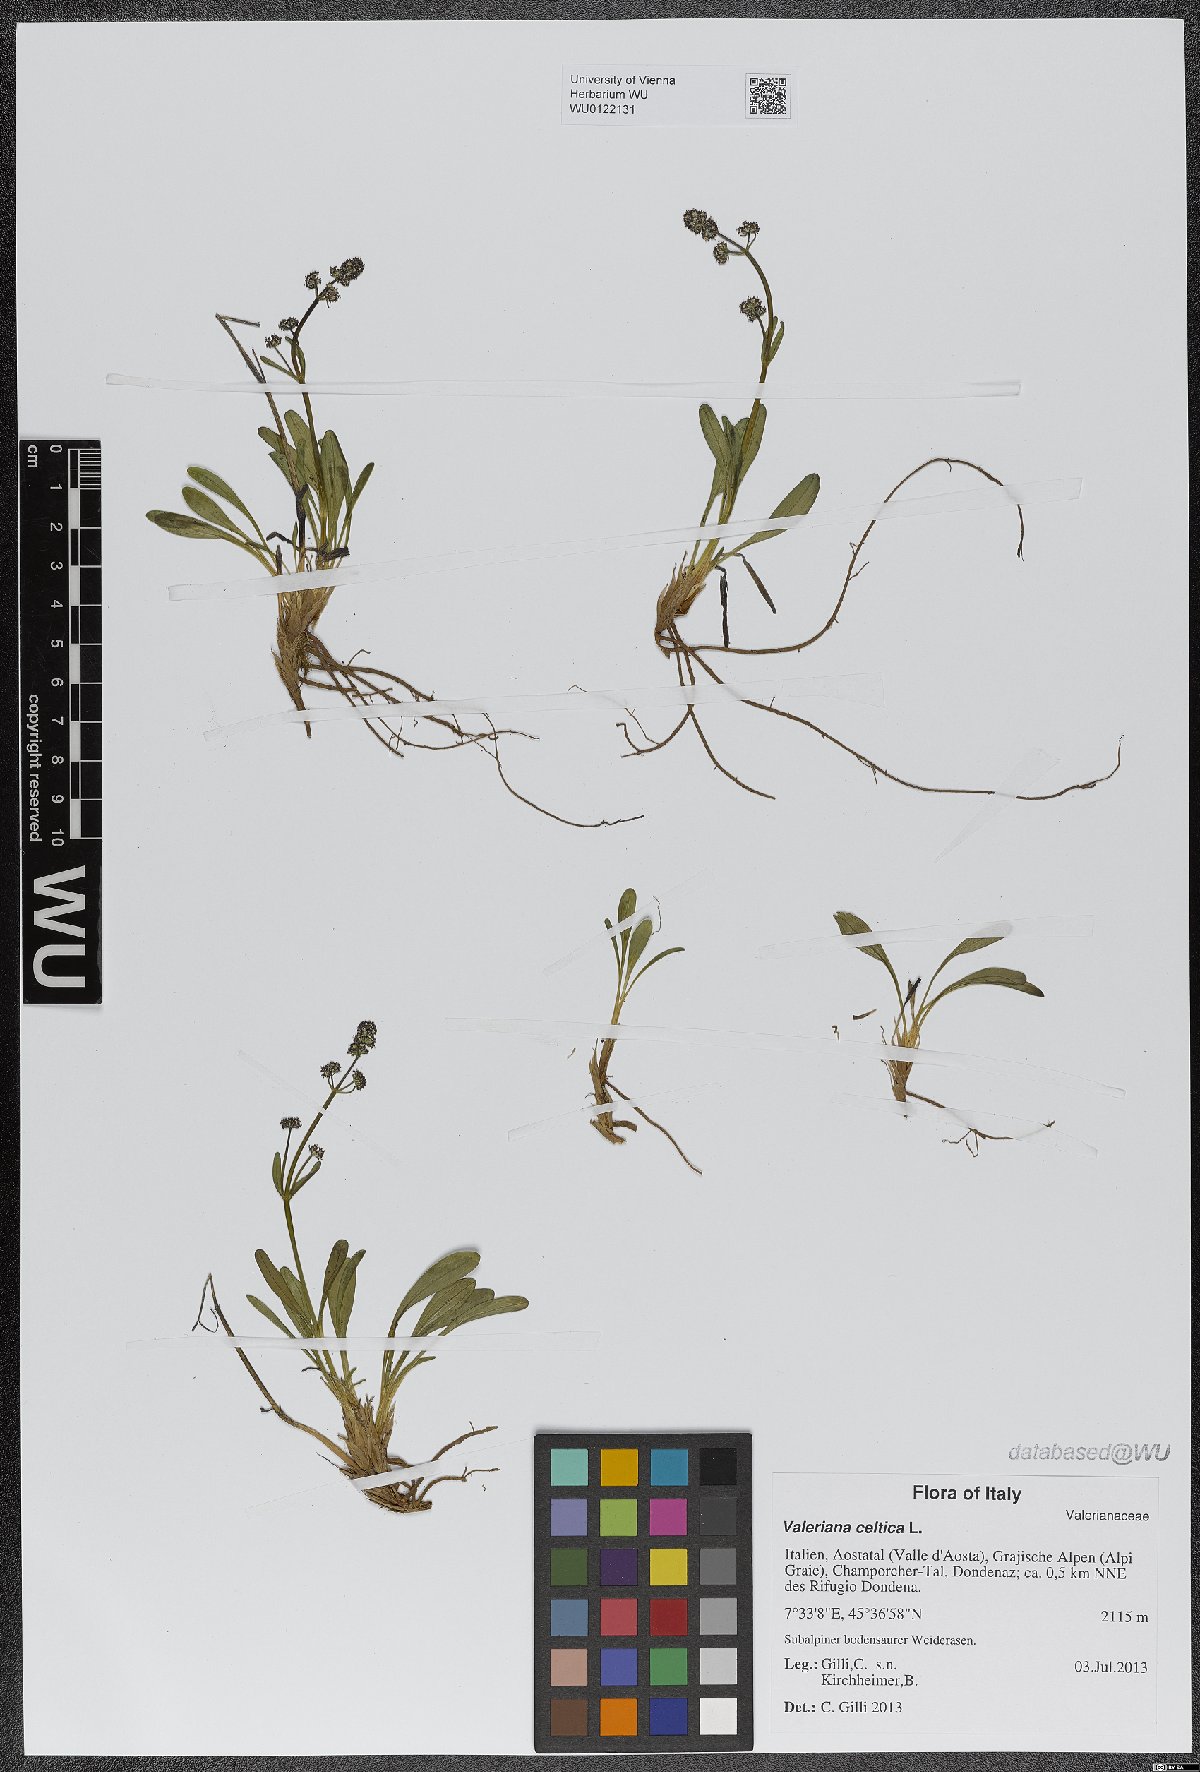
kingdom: Plantae
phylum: Tracheophyta
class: Magnoliopsida
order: Dipsacales
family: Caprifoliaceae
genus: Valeriana
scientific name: Valeriana celtica
